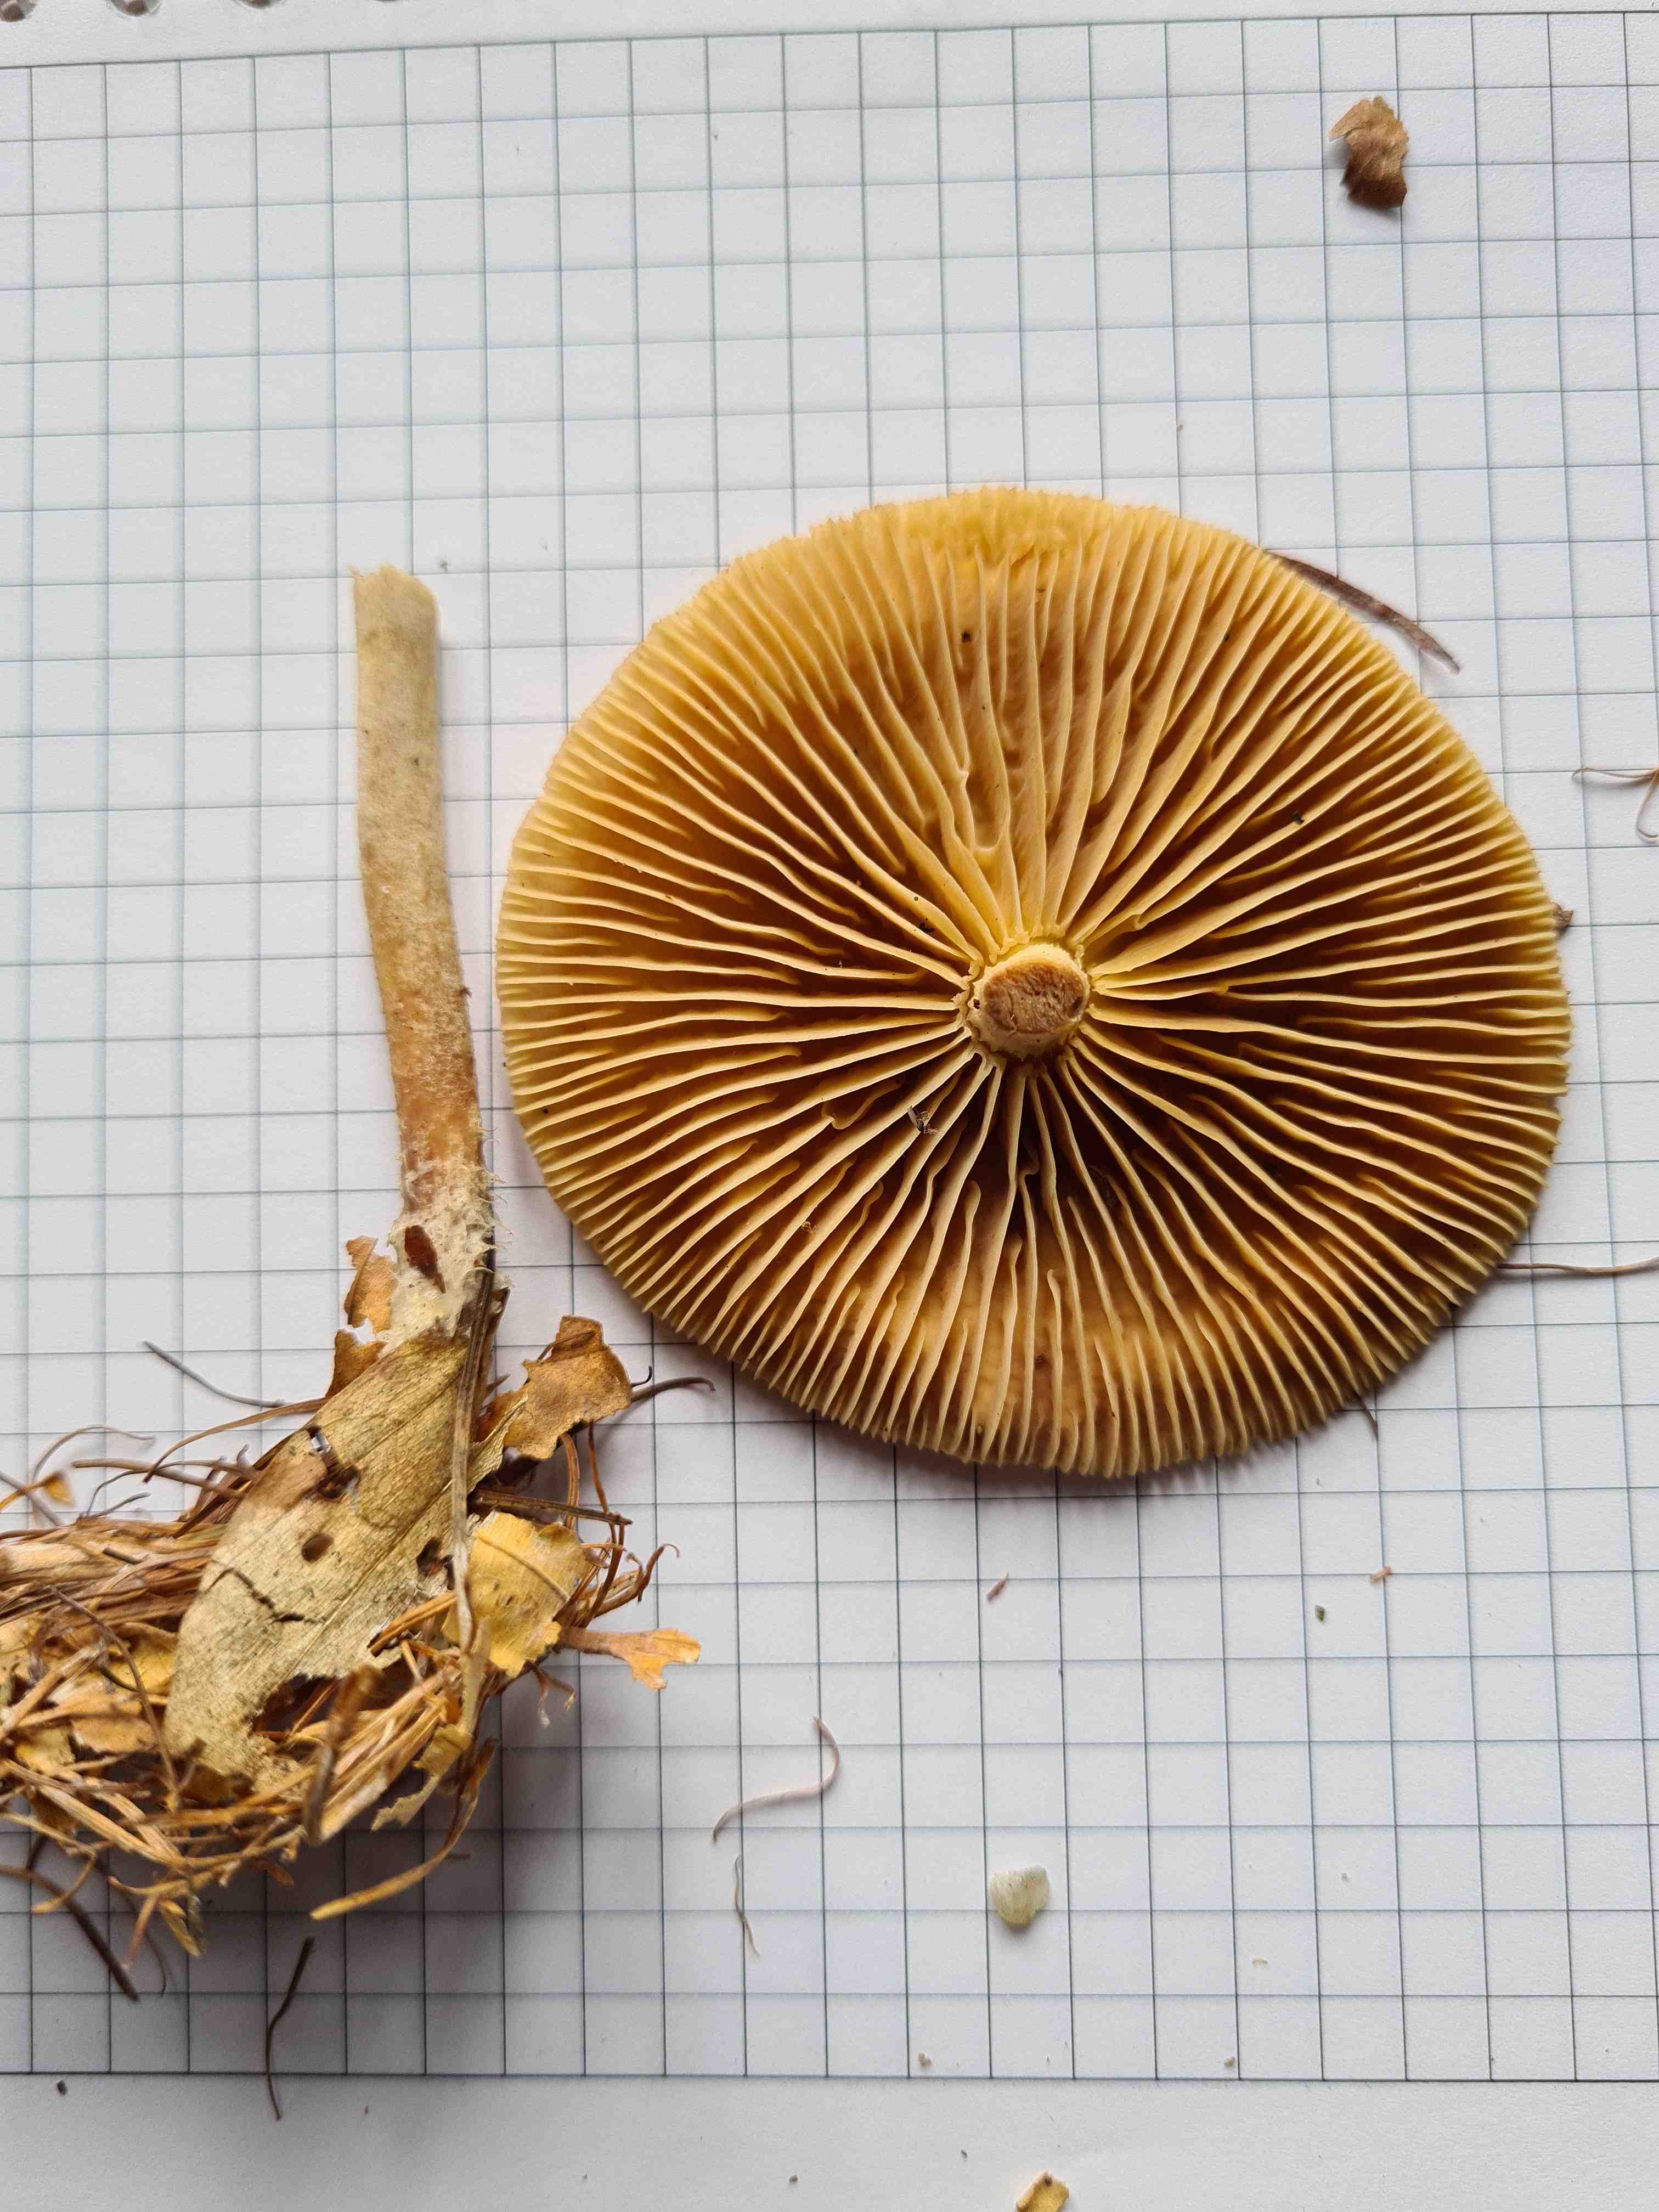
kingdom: Fungi
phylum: Basidiomycota
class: Agaricomycetes
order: Agaricales
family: Omphalotaceae
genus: Collybiopsis
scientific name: Collybiopsis peronata
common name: bestøvlet fladhat
